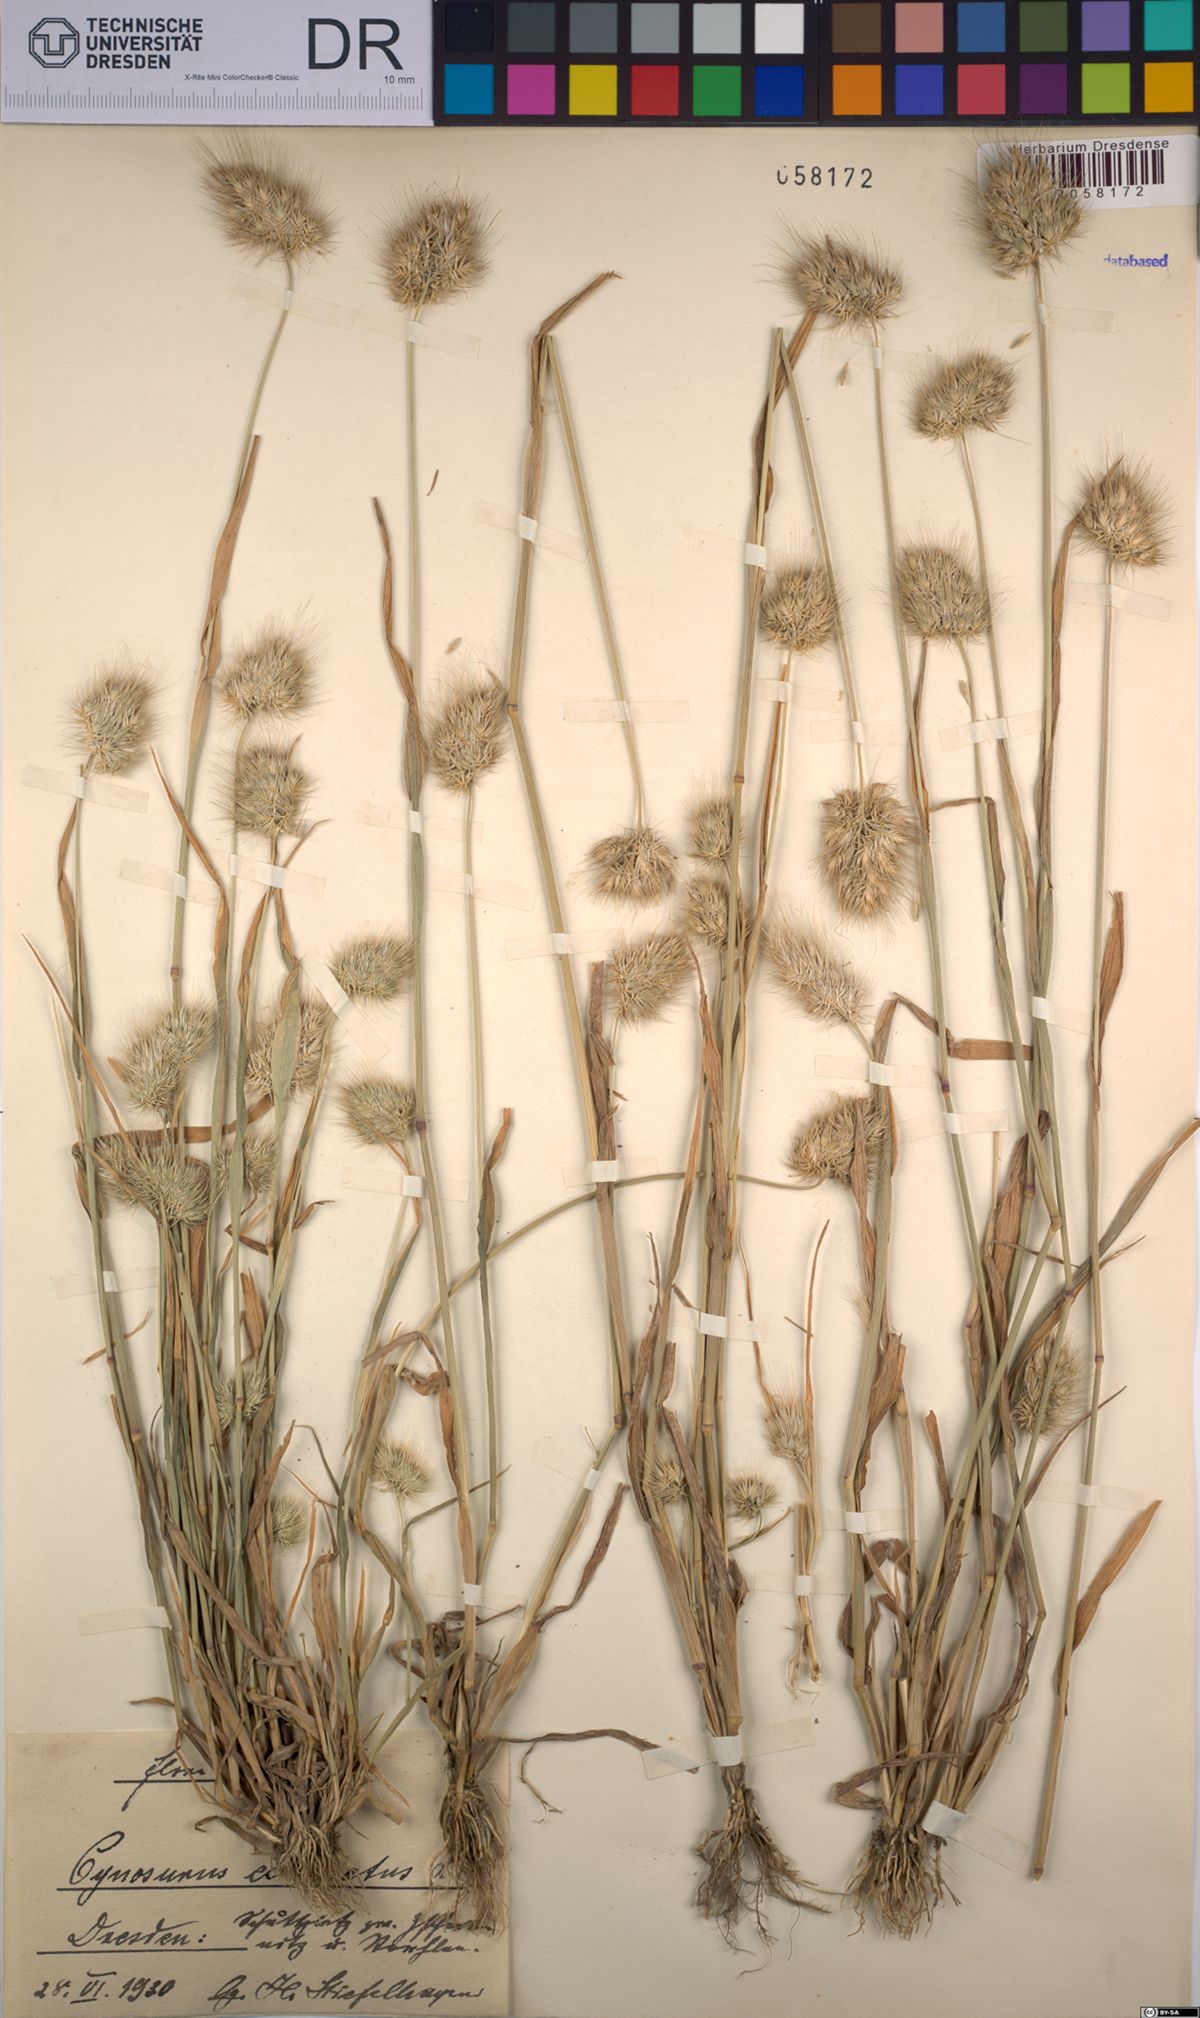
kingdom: Plantae
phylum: Tracheophyta
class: Liliopsida
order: Poales
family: Poaceae
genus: Cynosurus
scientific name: Cynosurus echinatus
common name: Rough dog's-tail
